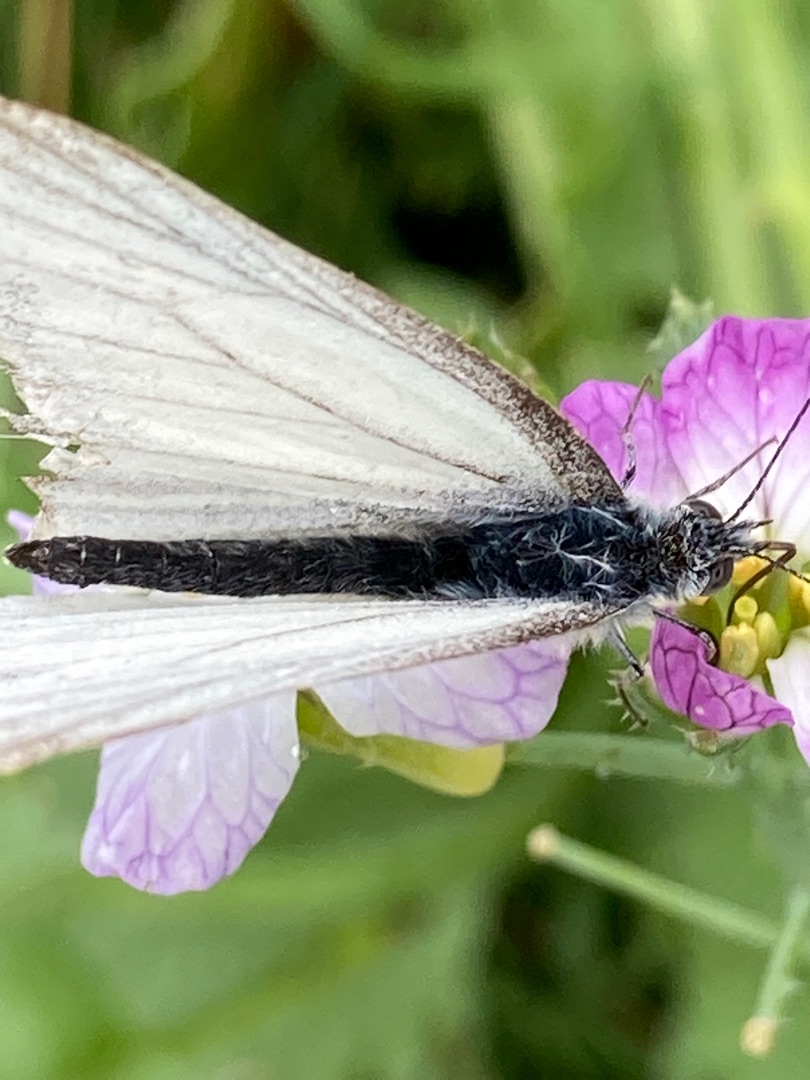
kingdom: Animalia
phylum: Arthropoda
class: Insecta
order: Lepidoptera
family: Pieridae
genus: Pieris
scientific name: Pieris napi
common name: Grønåret kålsommerfugl
